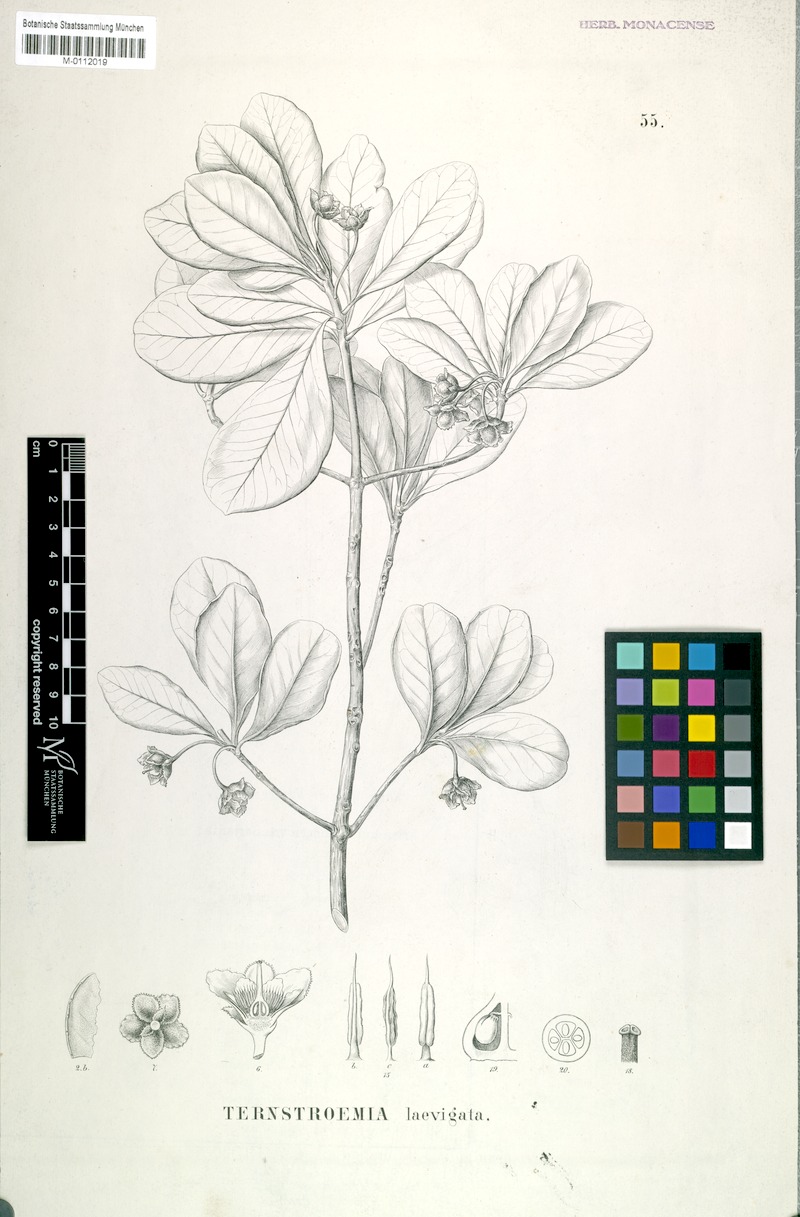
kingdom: Plantae
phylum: Tracheophyta
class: Magnoliopsida
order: Ericales
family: Pentaphylacaceae
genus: Ternstroemia
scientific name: Ternstroemia laevigata
